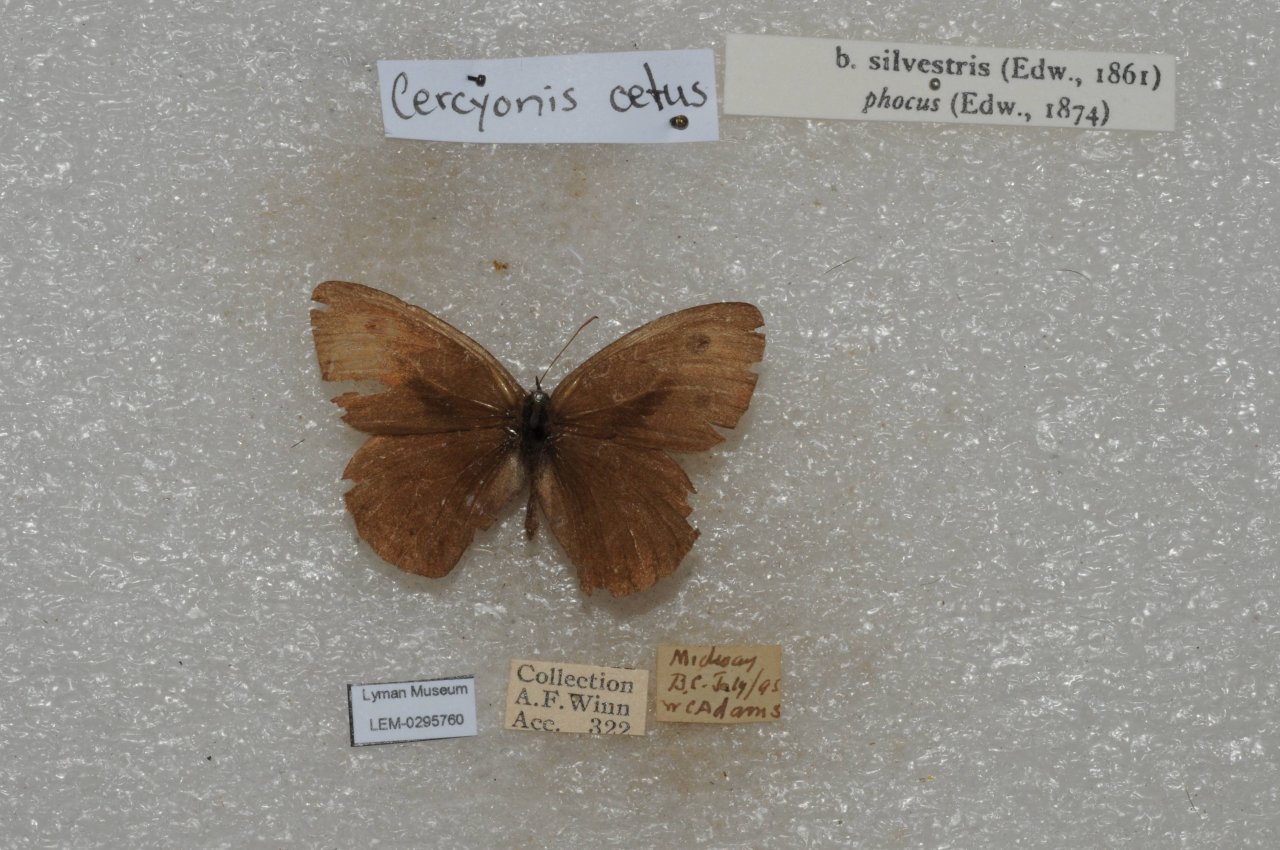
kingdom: Animalia
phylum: Arthropoda
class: Insecta
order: Lepidoptera
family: Nymphalidae
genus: Cercyonis
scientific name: Cercyonis oetus
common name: Small Wood-Nymph
